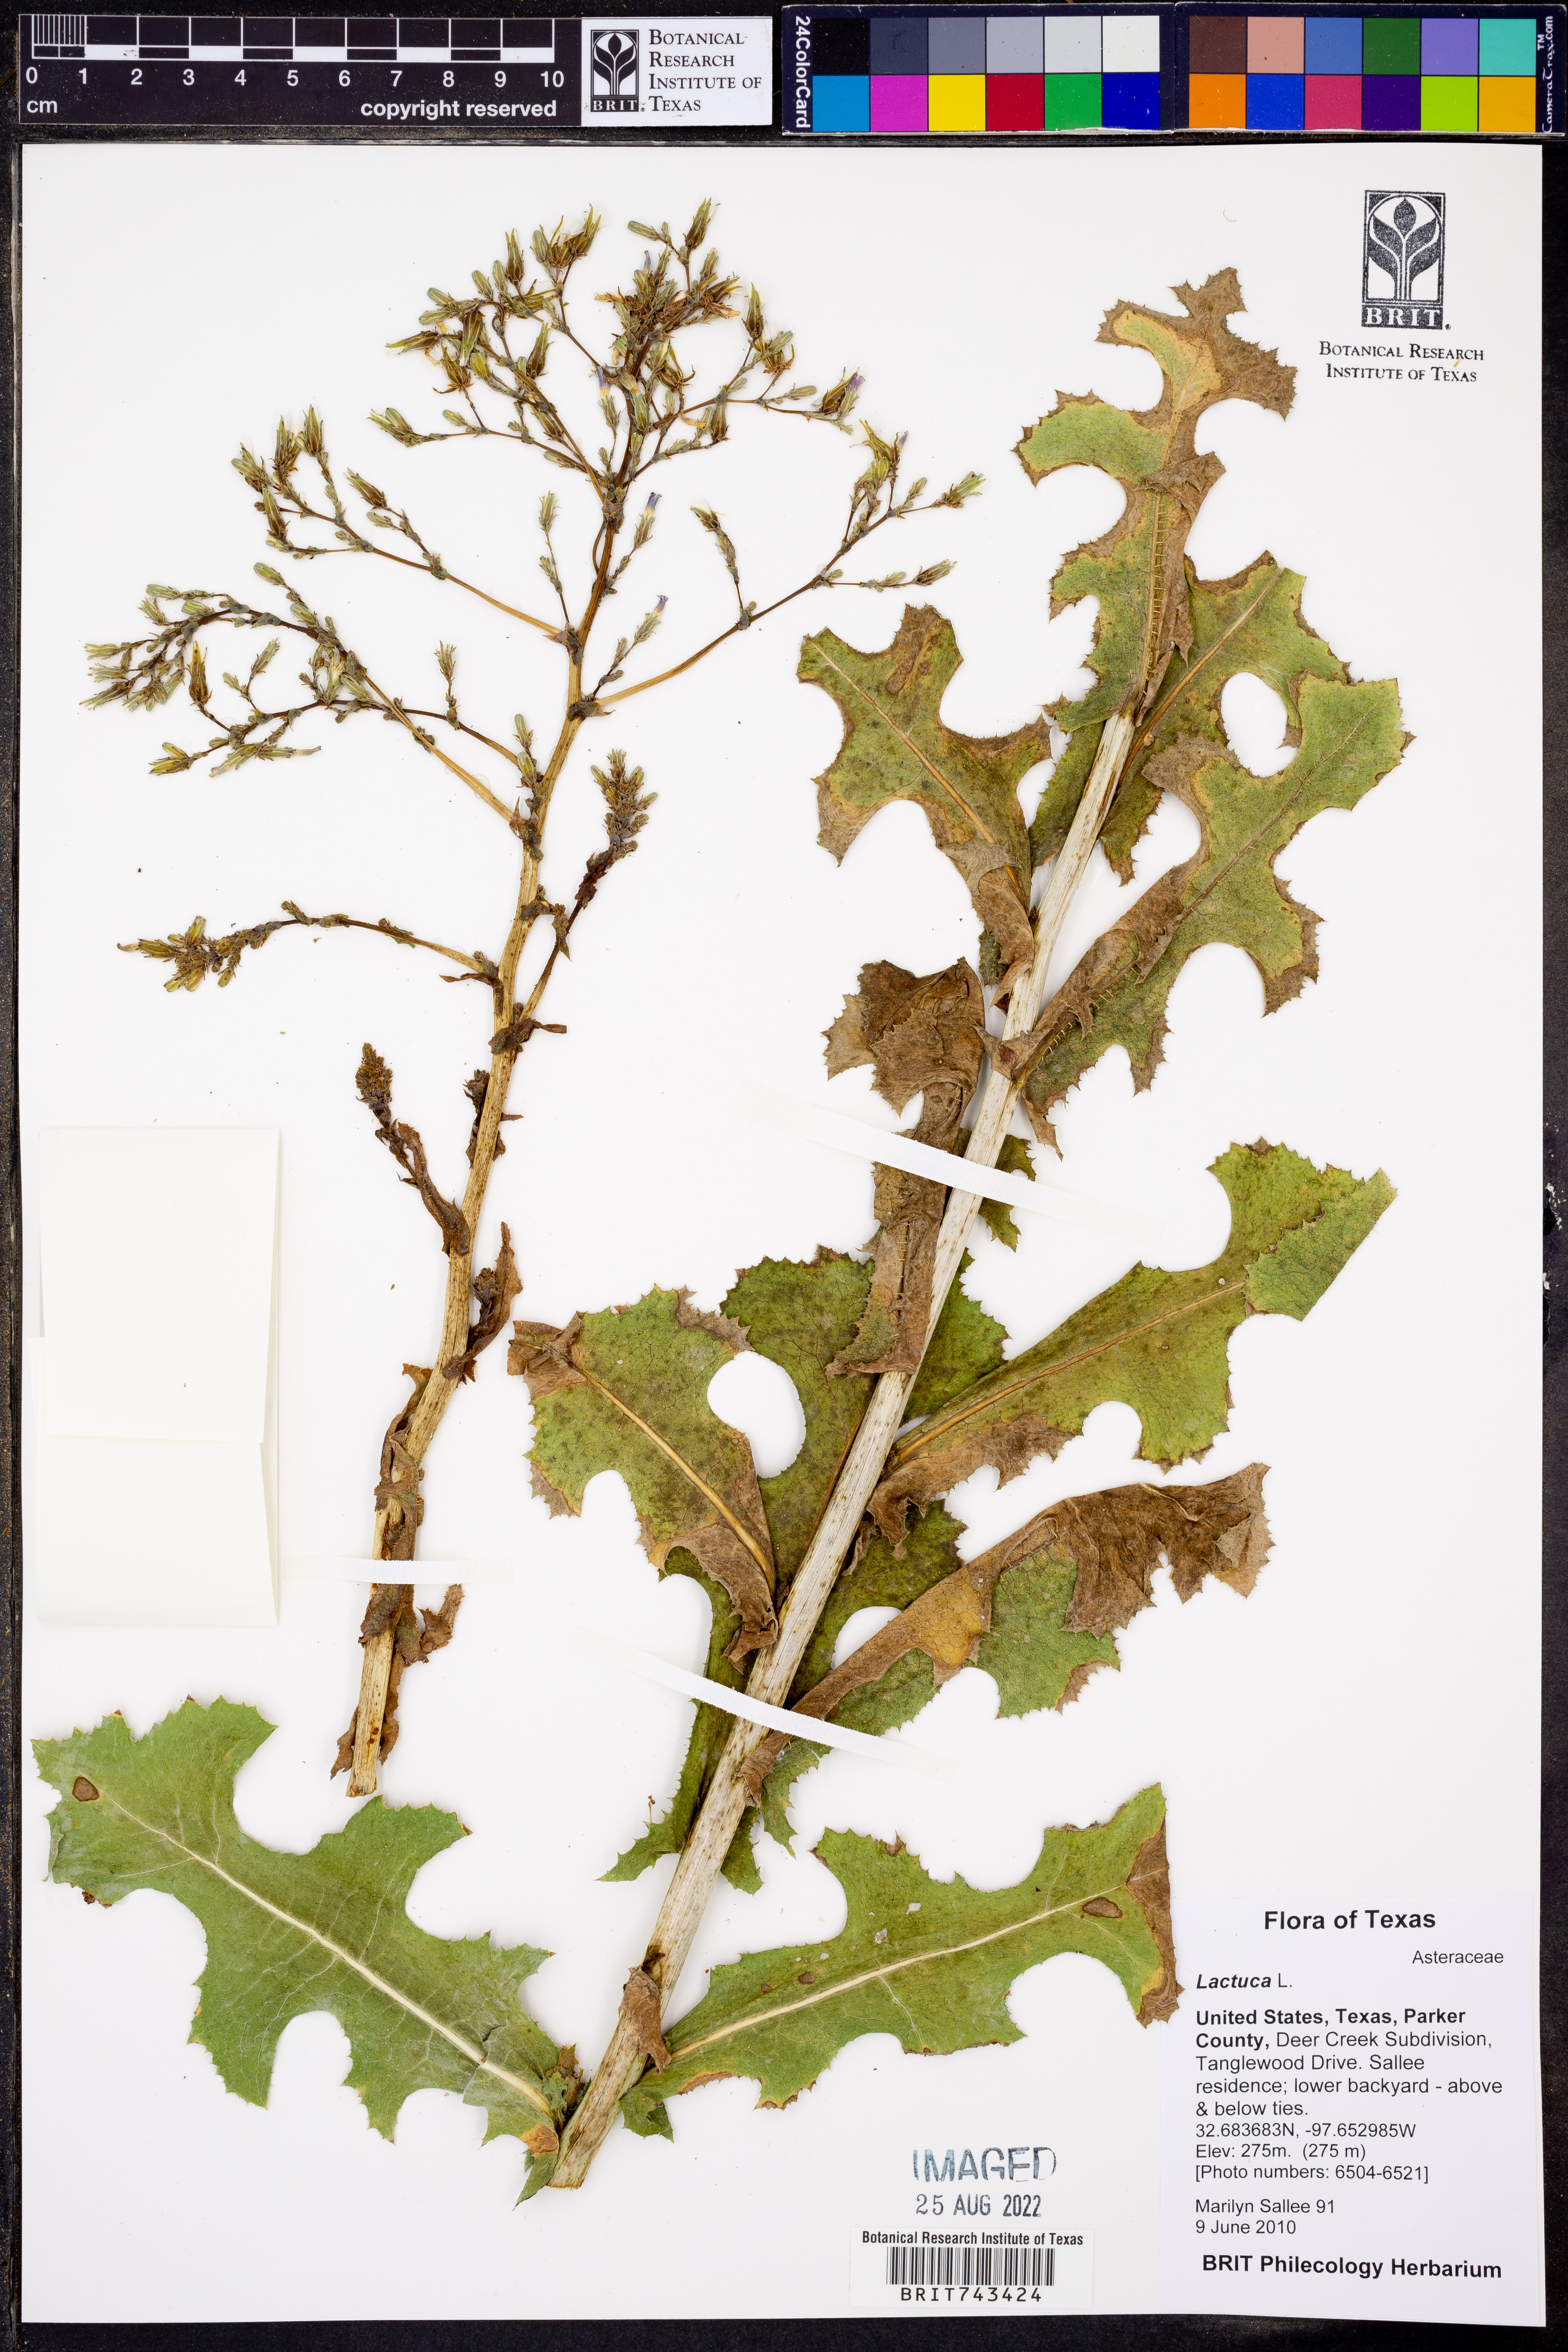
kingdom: Plantae
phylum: Tracheophyta
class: Magnoliopsida
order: Asterales
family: Asteraceae
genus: Lactuca
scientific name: Lactuca
